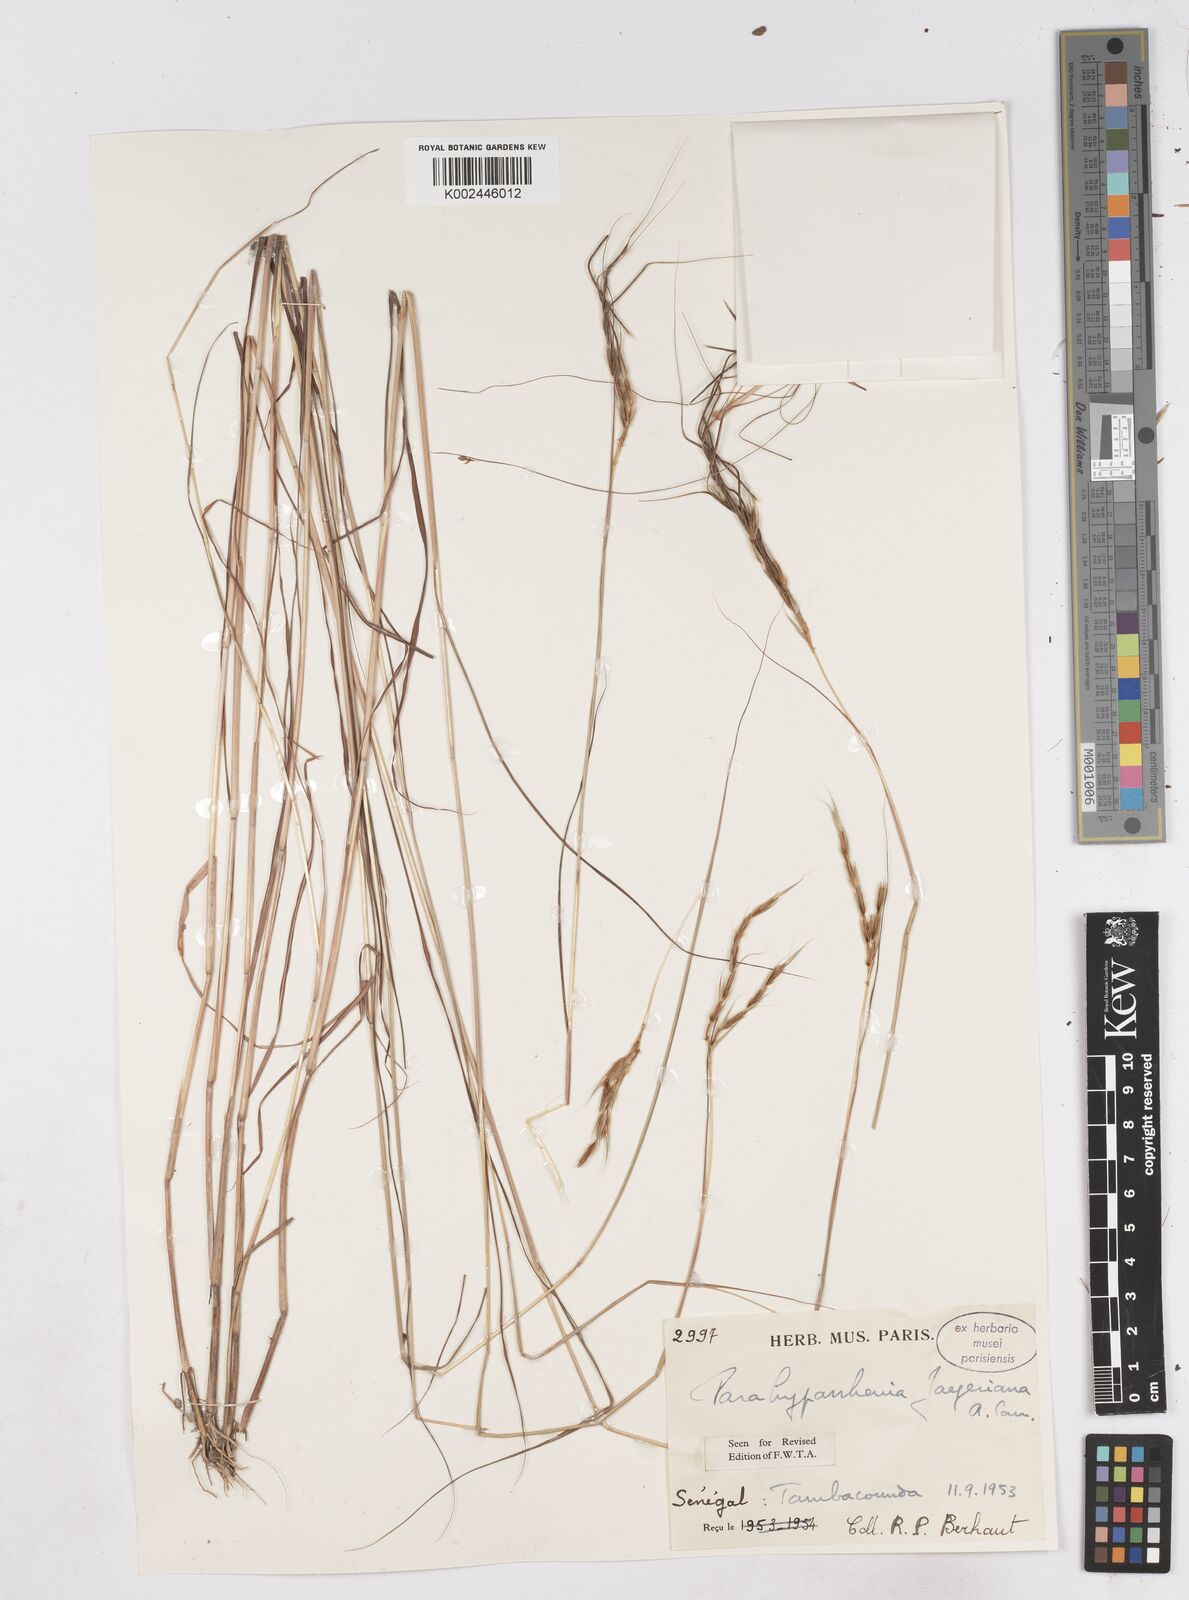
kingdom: Plantae
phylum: Tracheophyta
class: Liliopsida
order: Poales
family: Poaceae
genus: Parahyparrhenia
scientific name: Parahyparrhenia annua
